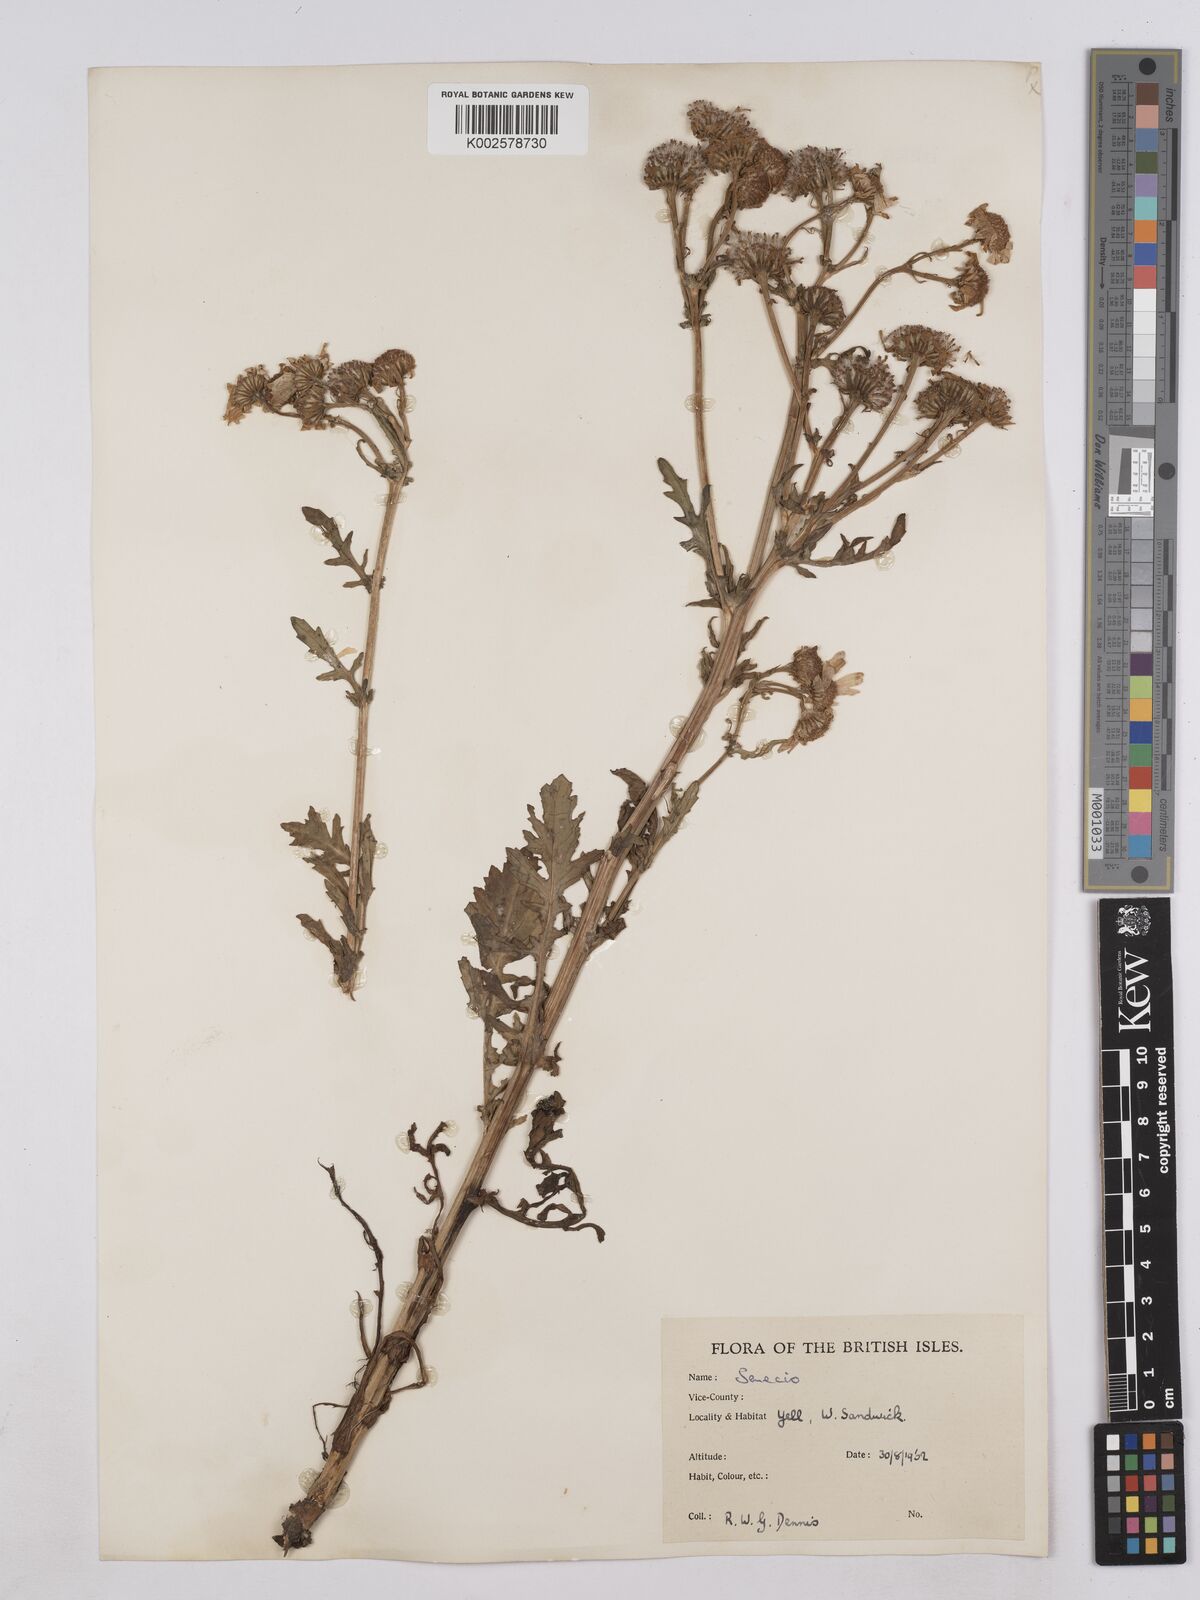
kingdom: Plantae
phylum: Tracheophyta
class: Magnoliopsida
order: Asterales
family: Asteraceae
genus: Jacobaea
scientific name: Jacobaea aquatica
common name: Water ragwort
